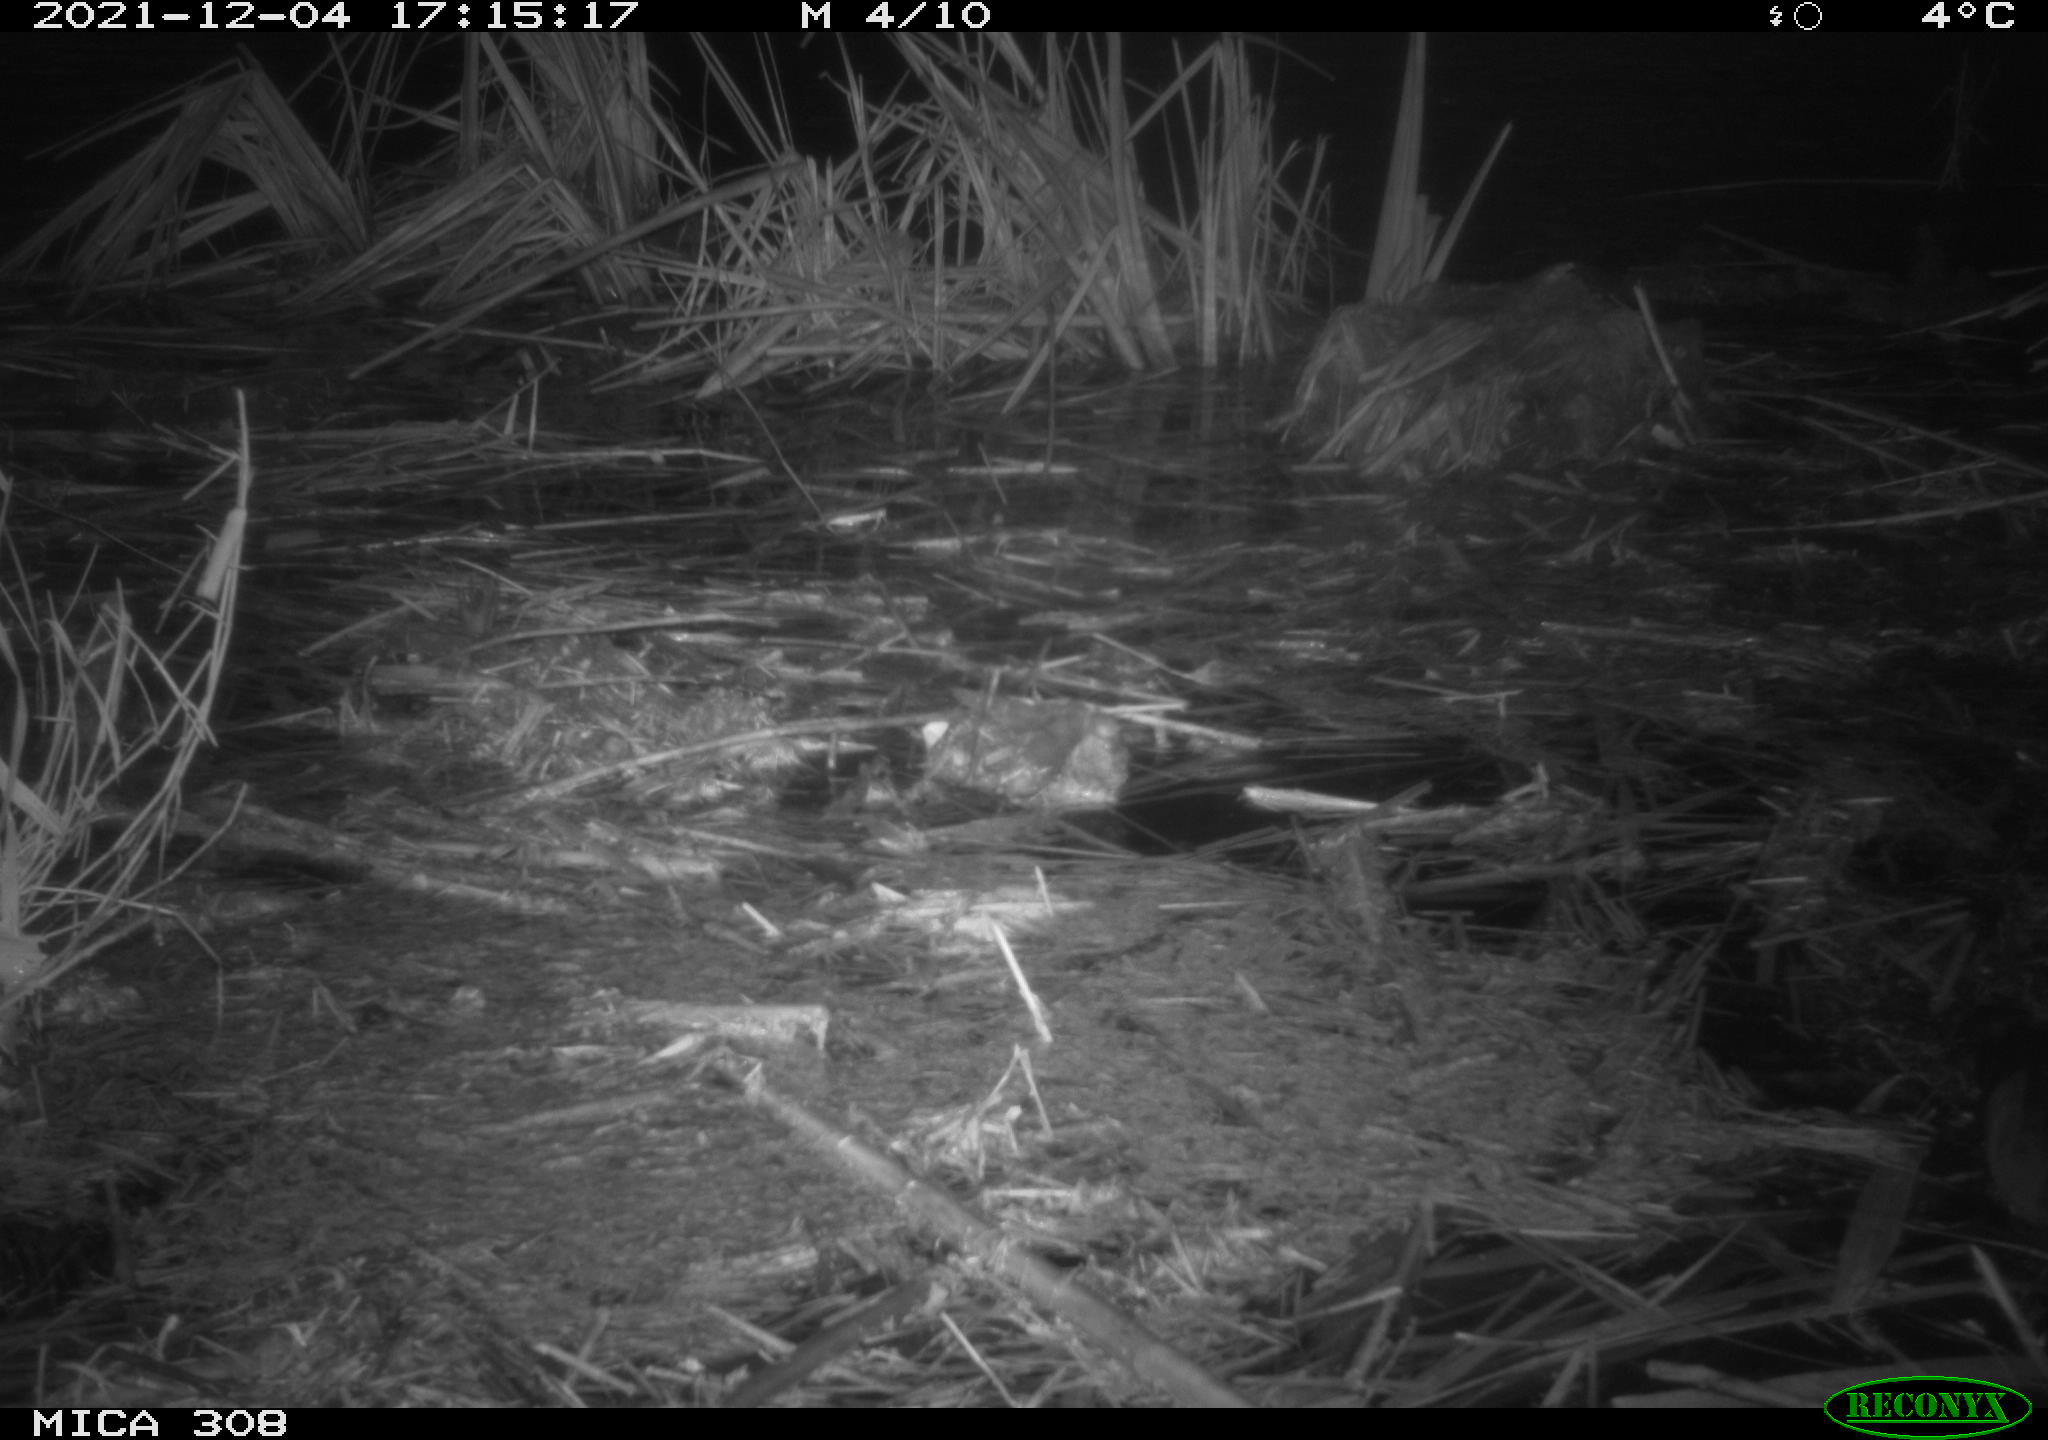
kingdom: Animalia
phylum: Chordata
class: Aves
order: Gruiformes
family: Rallidae
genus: Fulica
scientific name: Fulica atra
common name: Eurasian coot
